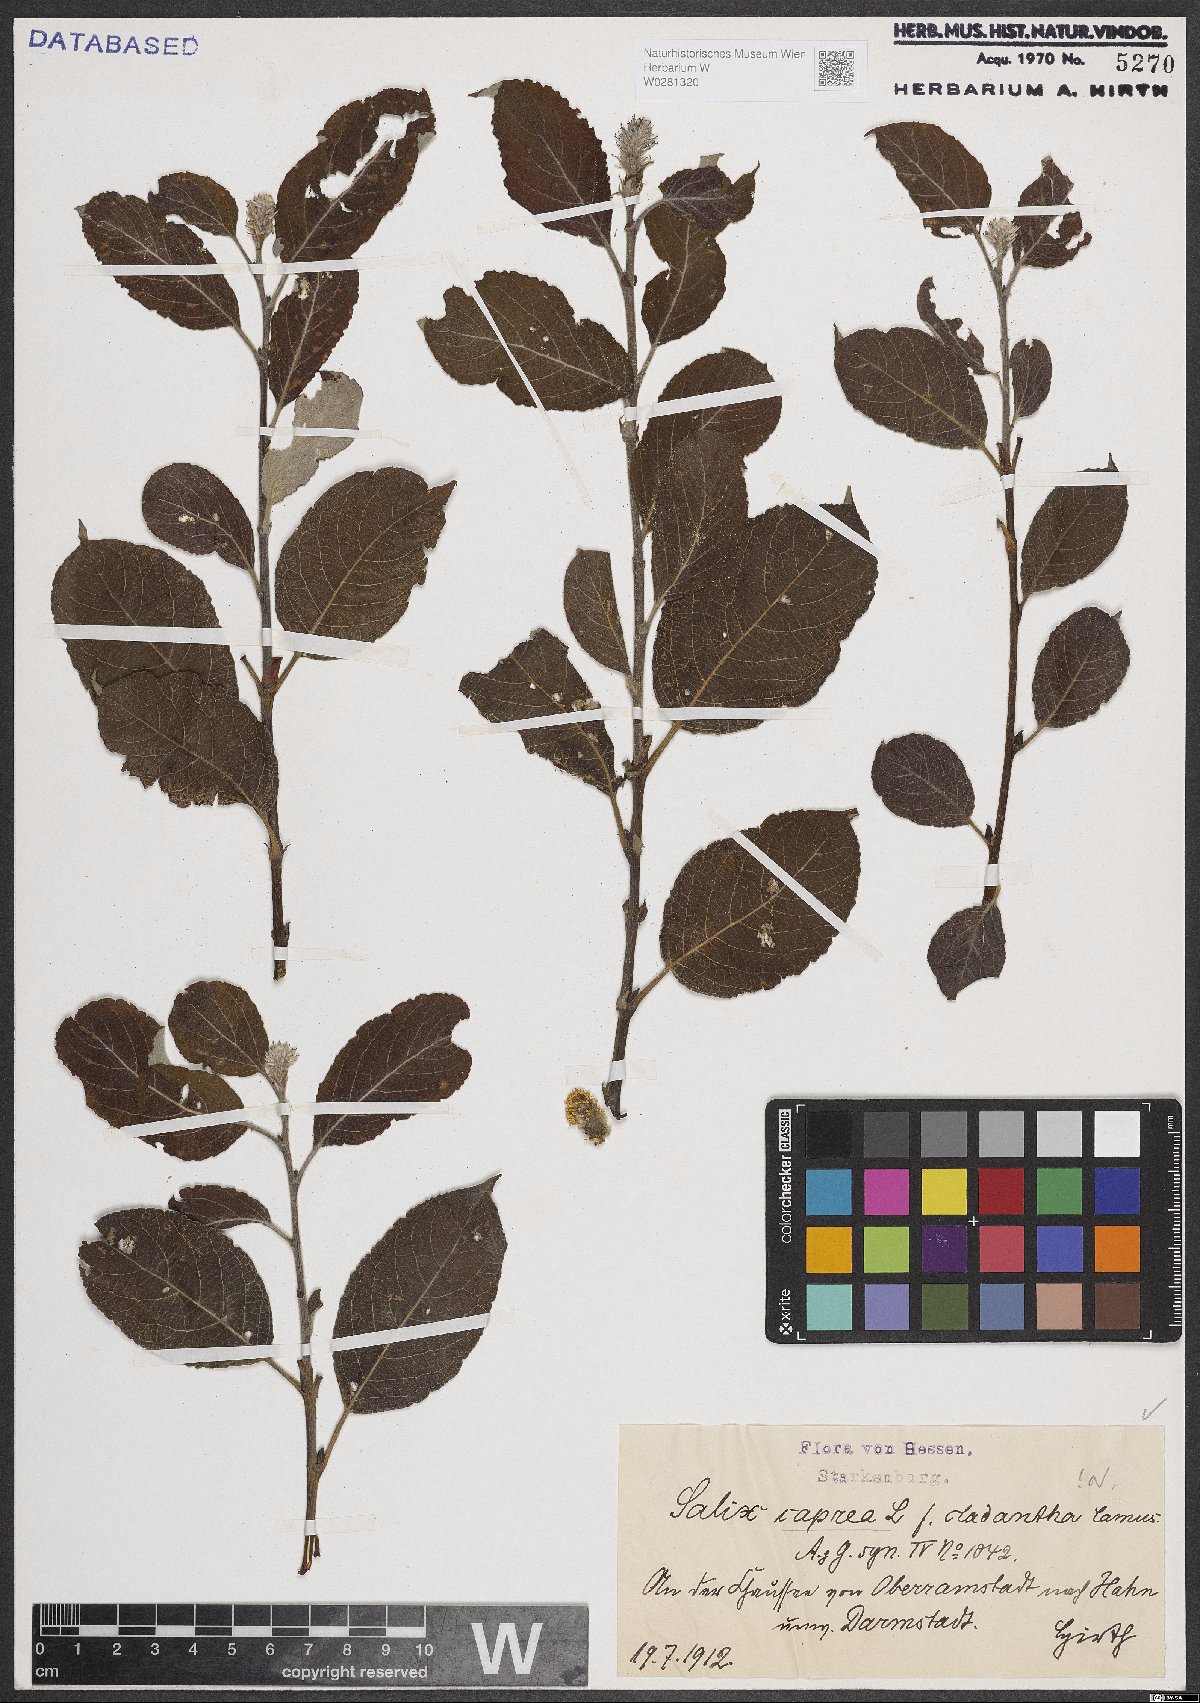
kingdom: Plantae
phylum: Tracheophyta
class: Magnoliopsida
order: Malpighiales
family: Salicaceae
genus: Salix
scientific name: Salix caprea
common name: Goat willow
